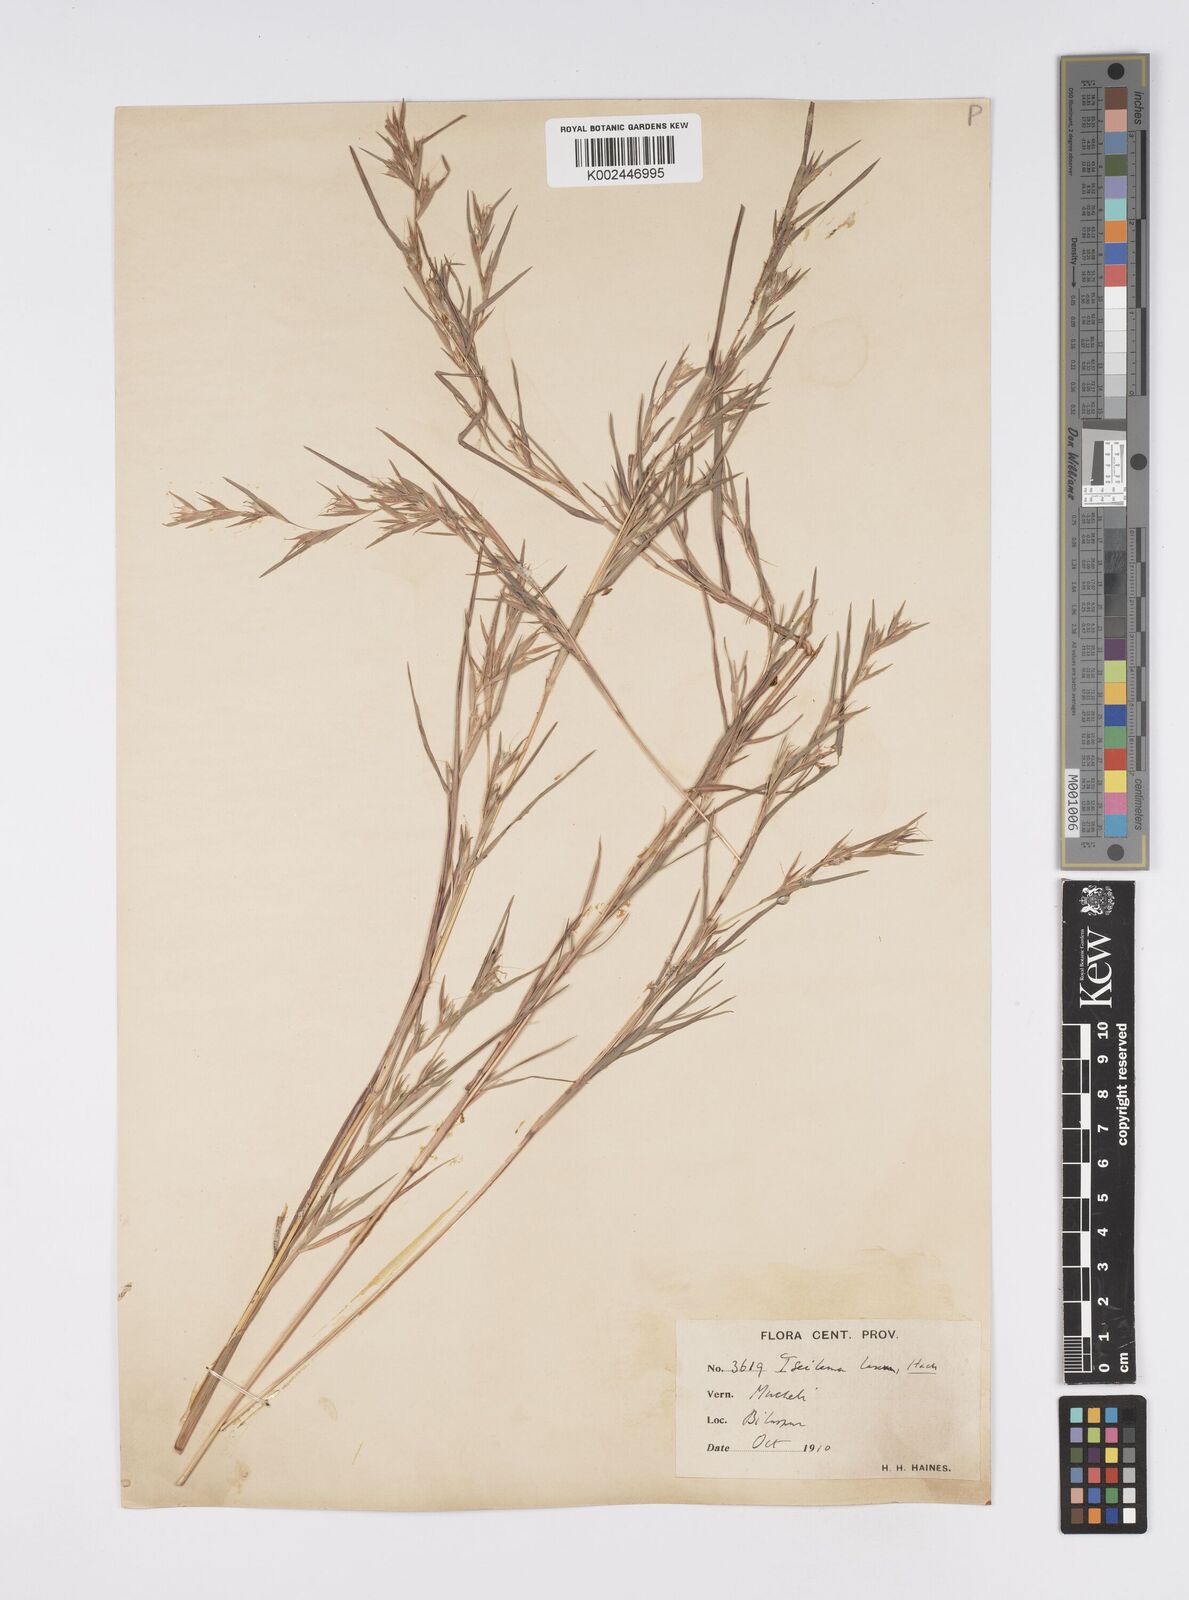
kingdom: Plantae
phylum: Tracheophyta
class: Liliopsida
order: Poales
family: Poaceae
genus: Iseilema
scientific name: Iseilema prostratum
